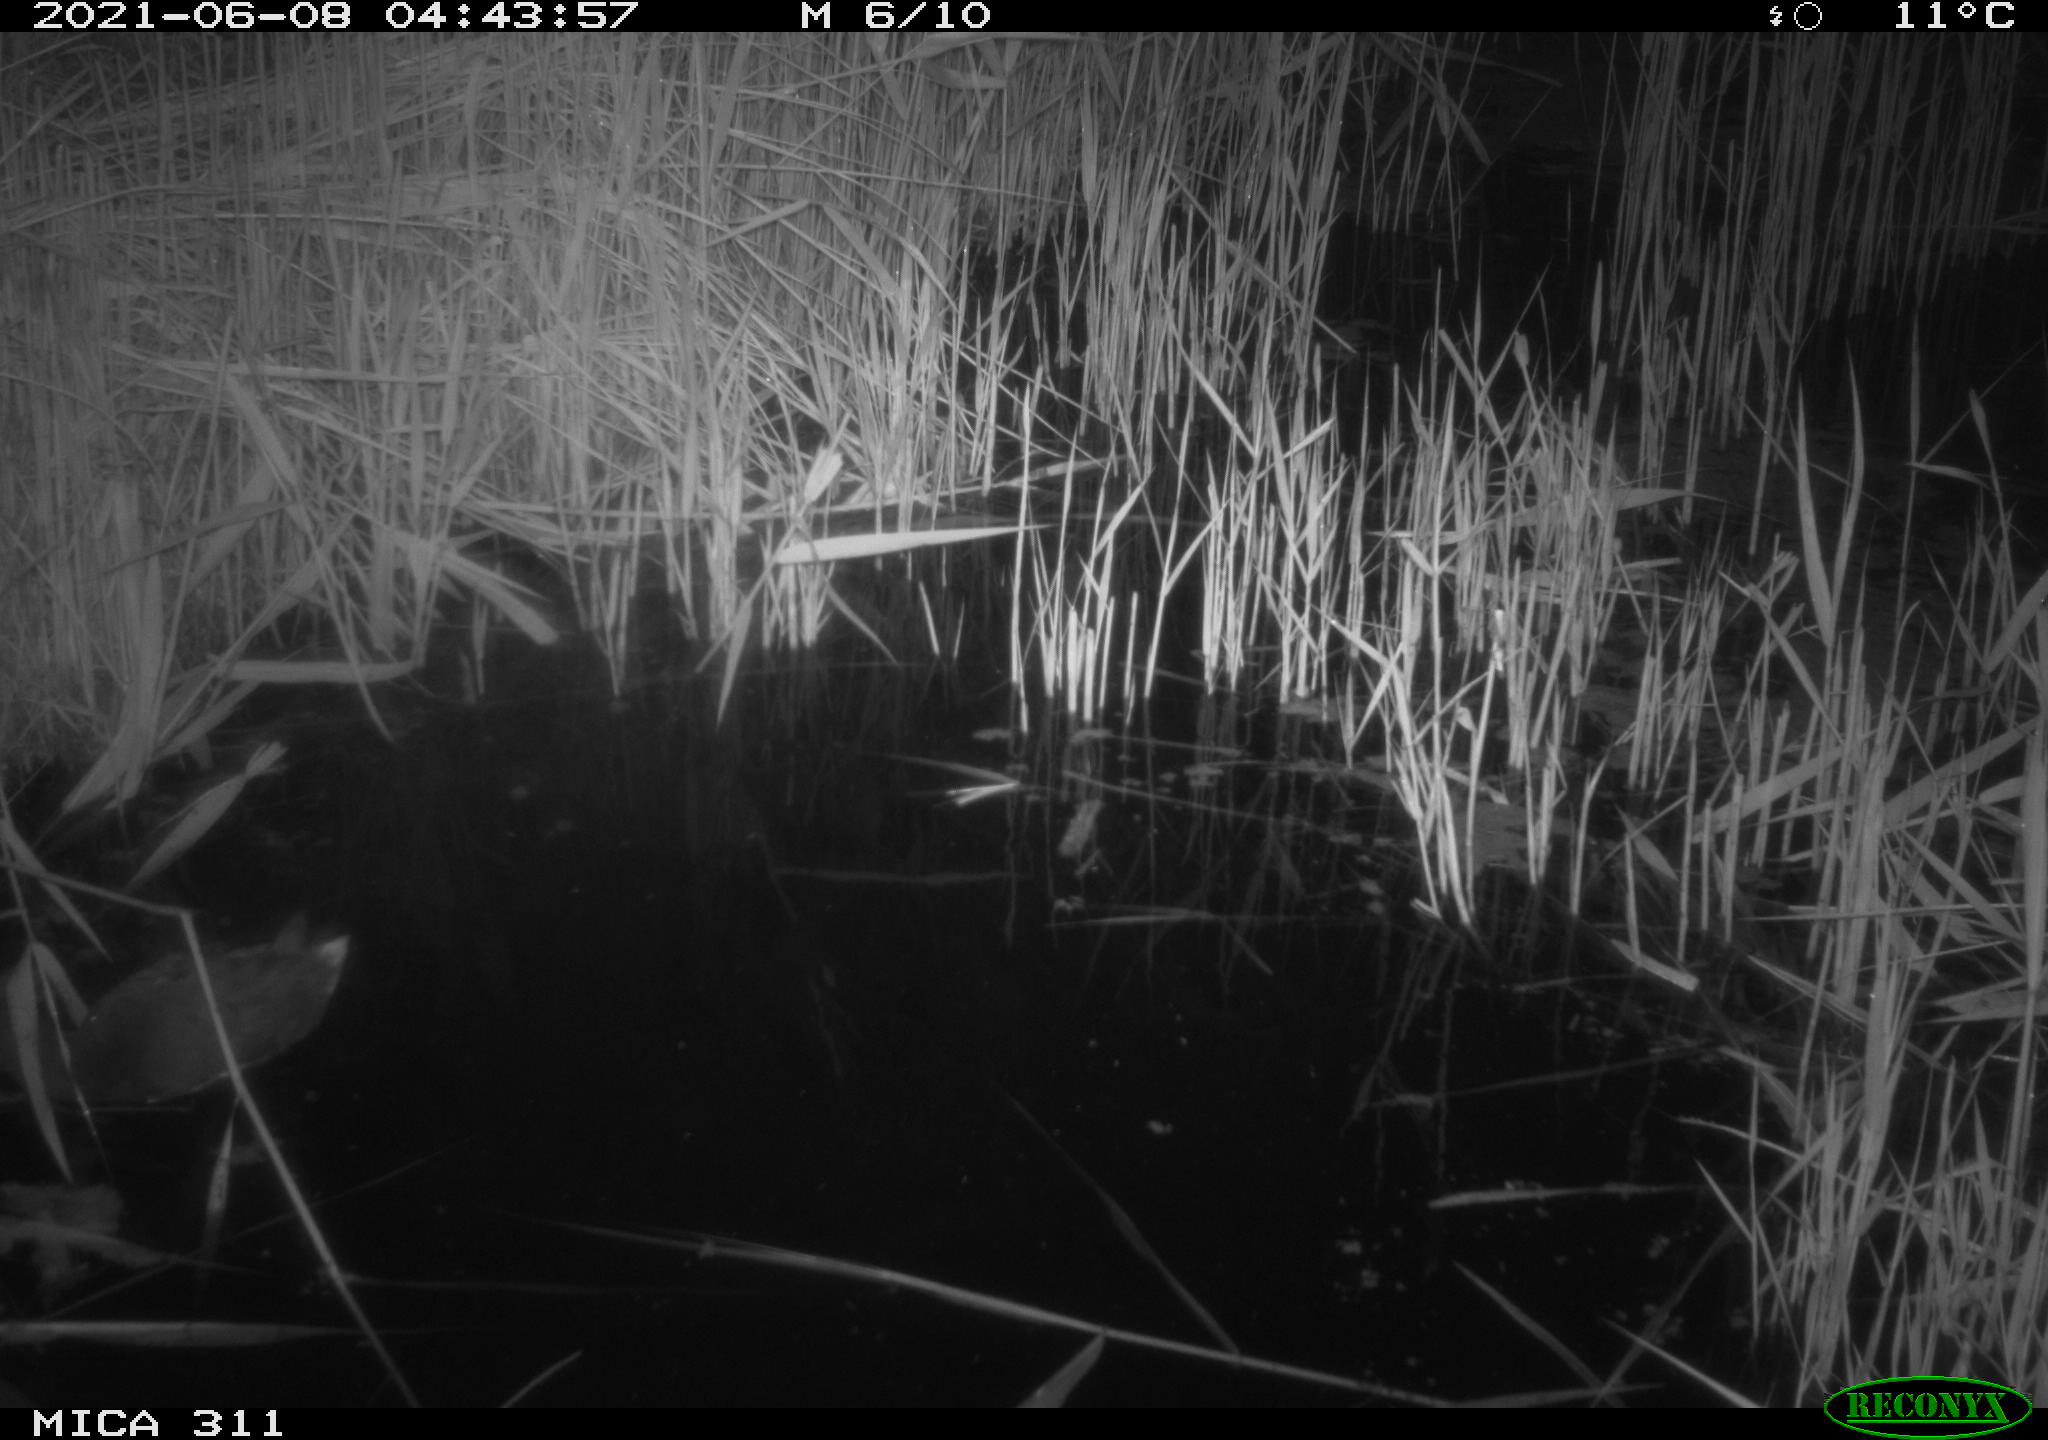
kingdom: Animalia
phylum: Chordata
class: Aves
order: Gruiformes
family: Rallidae
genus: Gallinula
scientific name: Gallinula chloropus
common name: Common moorhen
